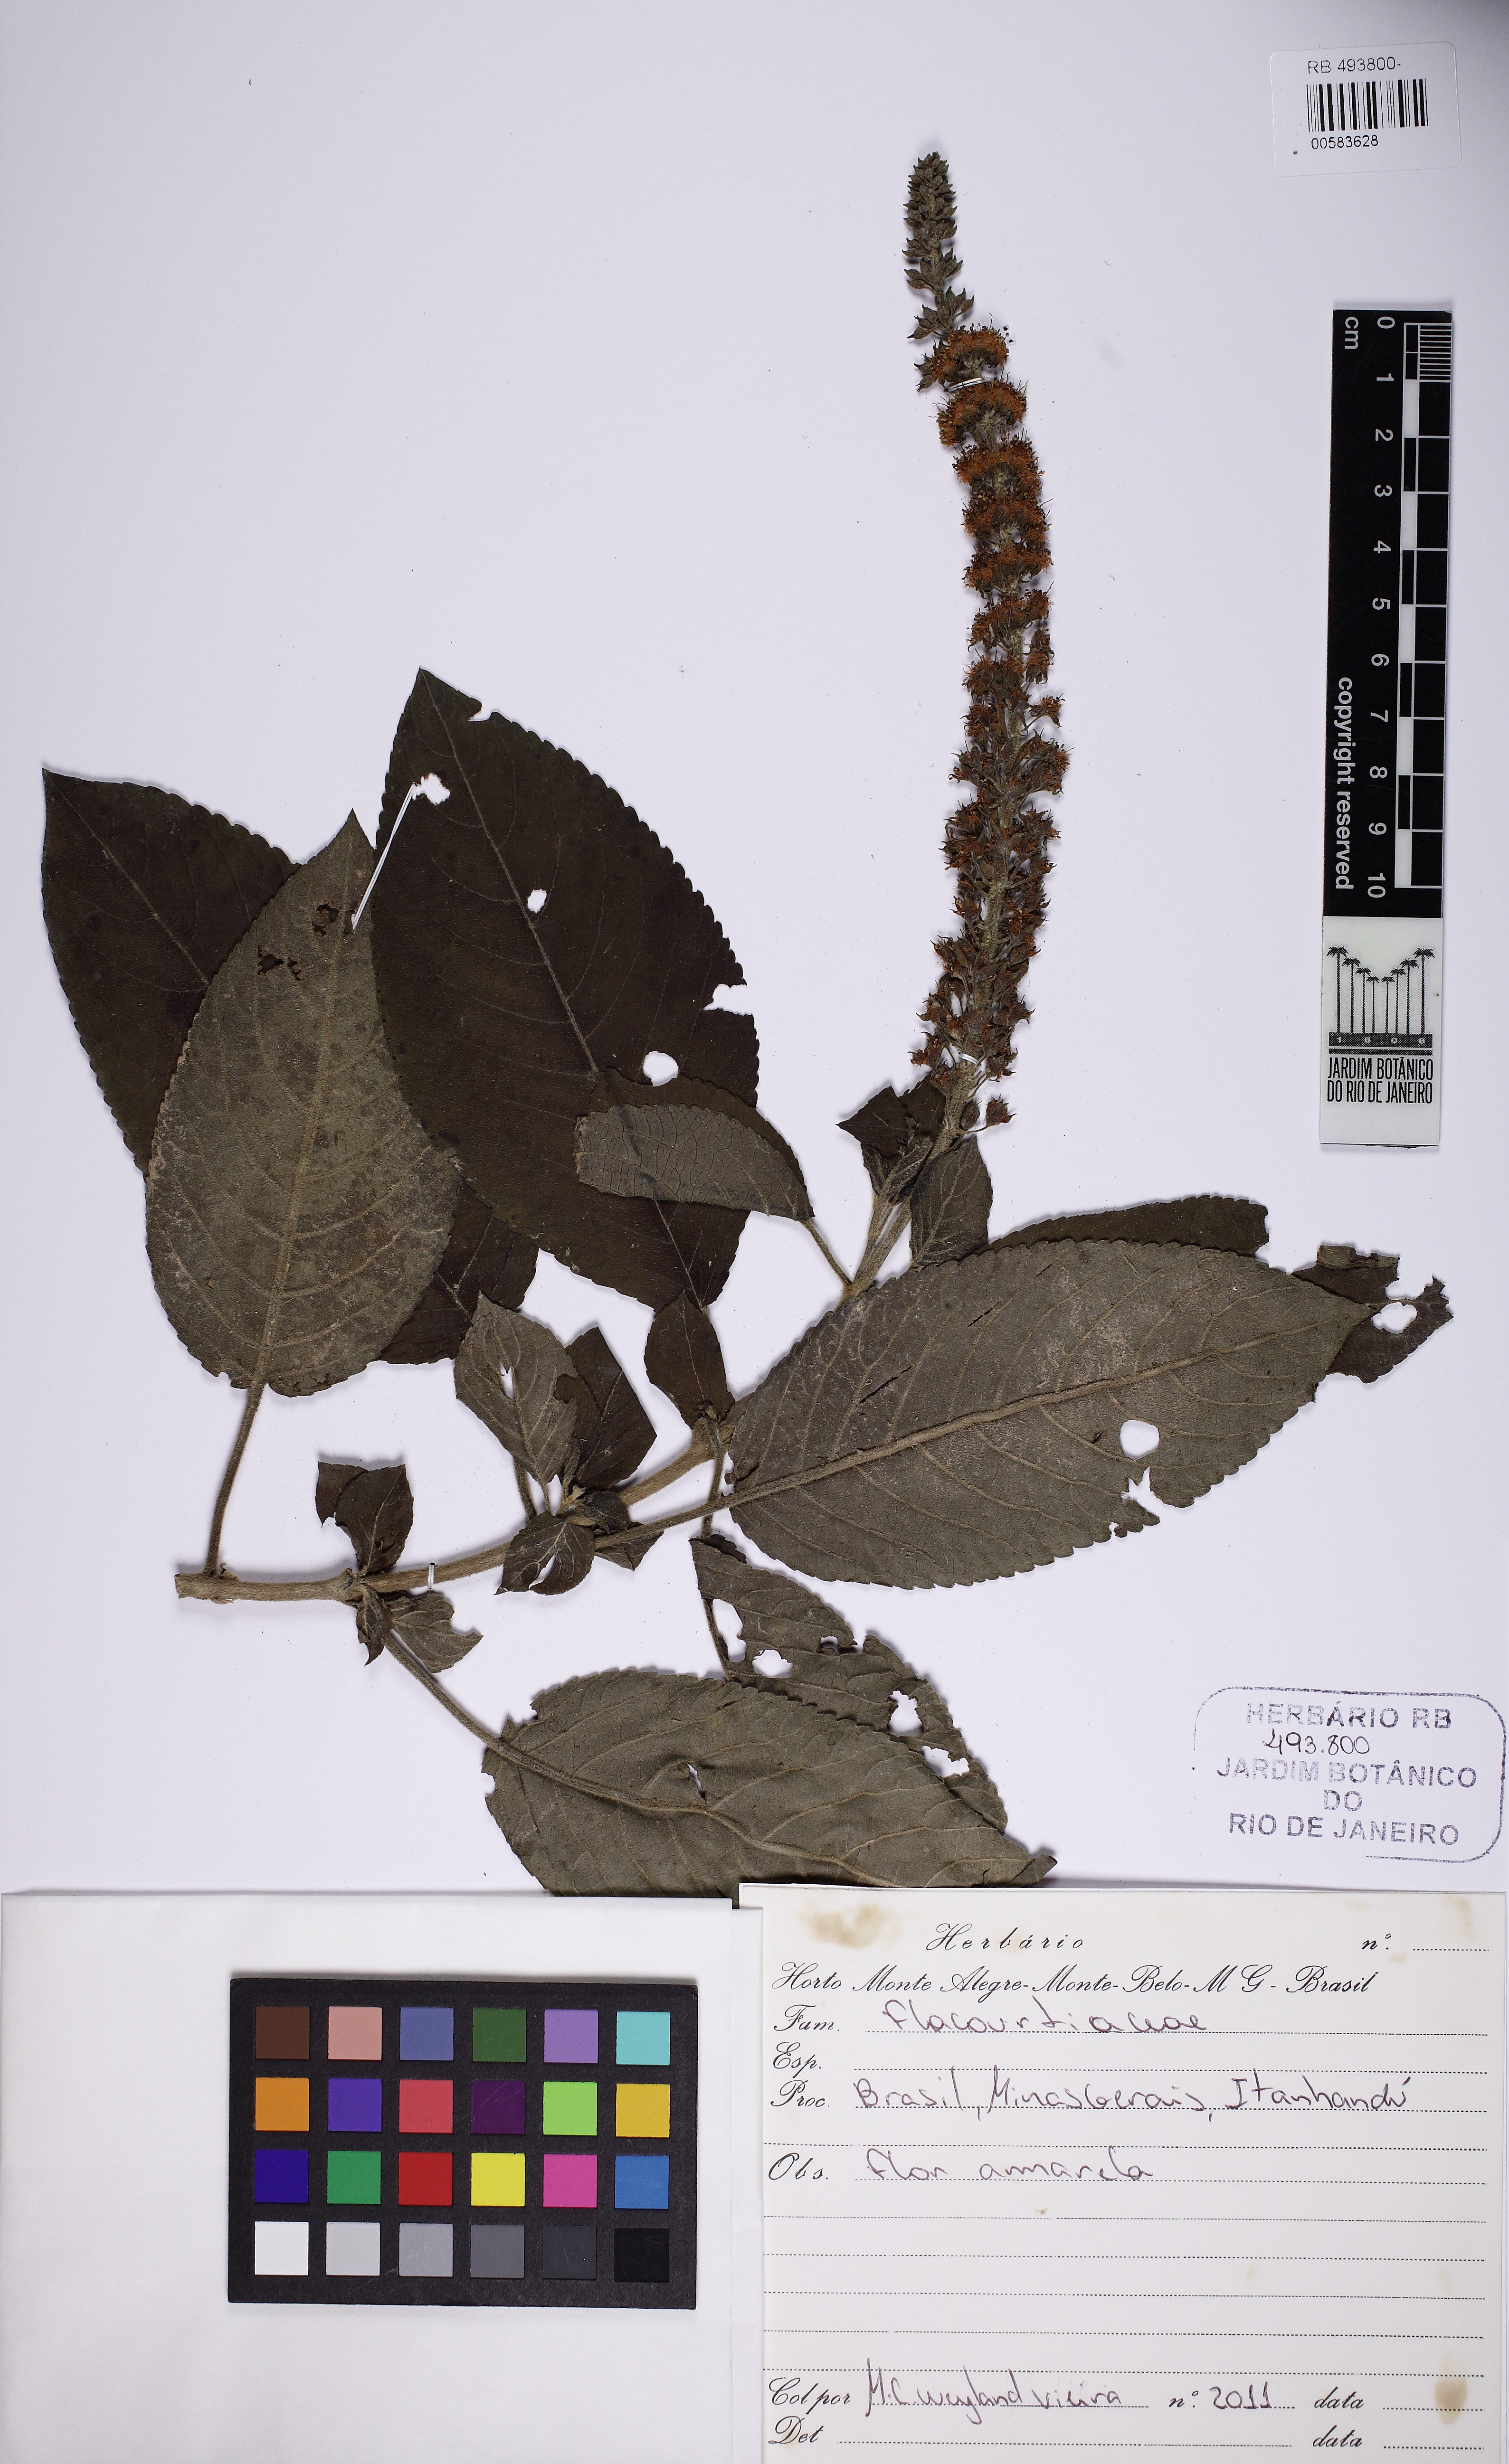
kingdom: Plantae
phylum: Tracheophyta
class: Magnoliopsida
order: Malpighiales
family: Salicaceae
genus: Abatia
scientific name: Abatia americana
